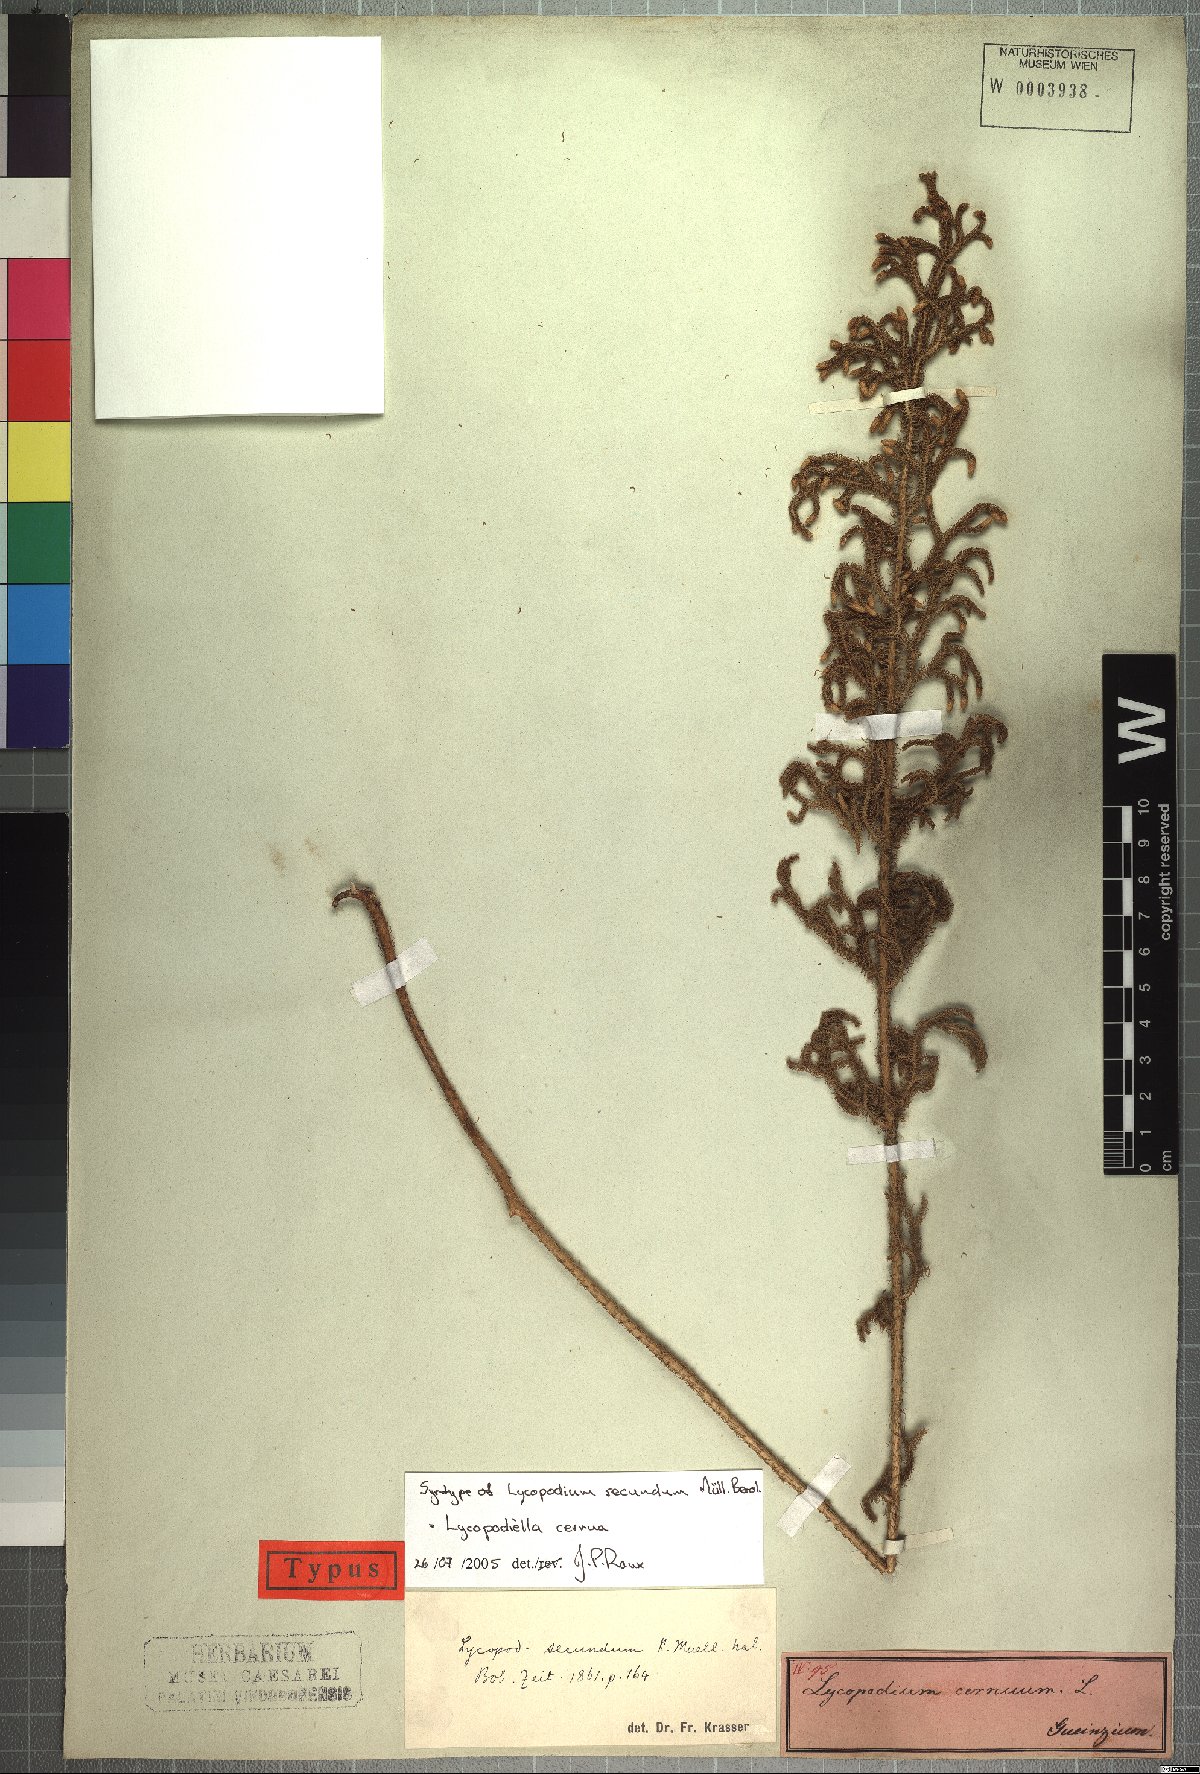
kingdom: Plantae
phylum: Tracheophyta
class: Lycopodiopsida
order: Lycopodiales
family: Lycopodiaceae
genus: Palhinhaea
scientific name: Palhinhaea cernua
